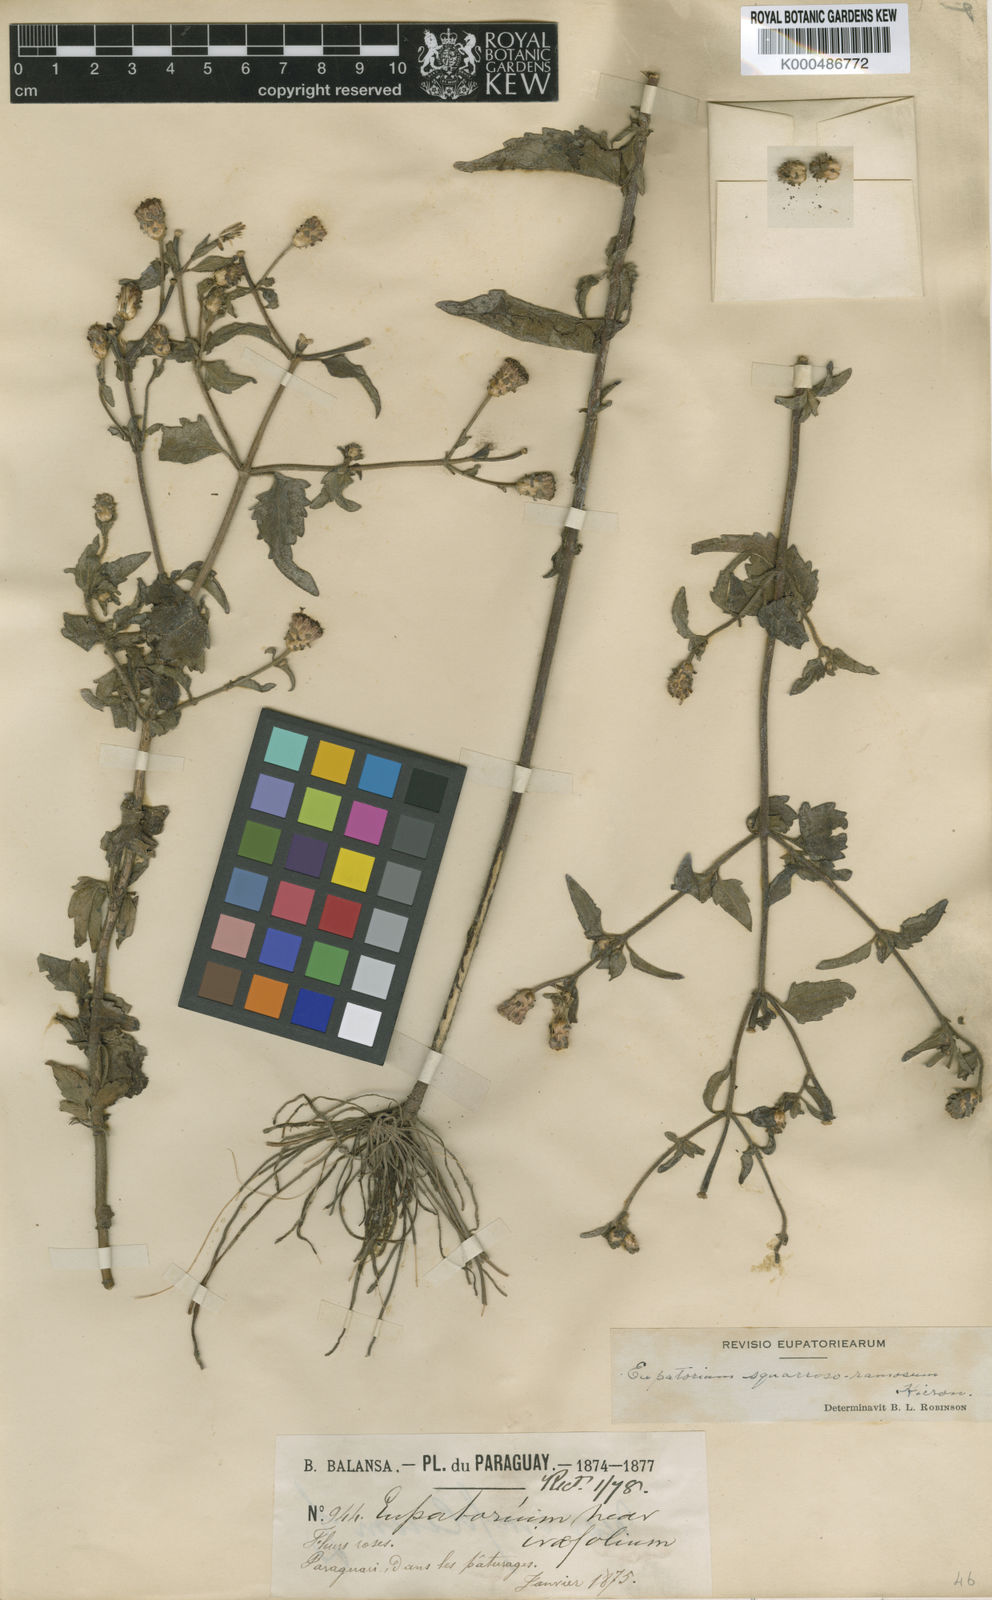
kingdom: Plantae
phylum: Tracheophyta
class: Magnoliopsida
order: Asterales
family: Asteraceae
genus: Chromolaena
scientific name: Chromolaena squarrosoramosa
